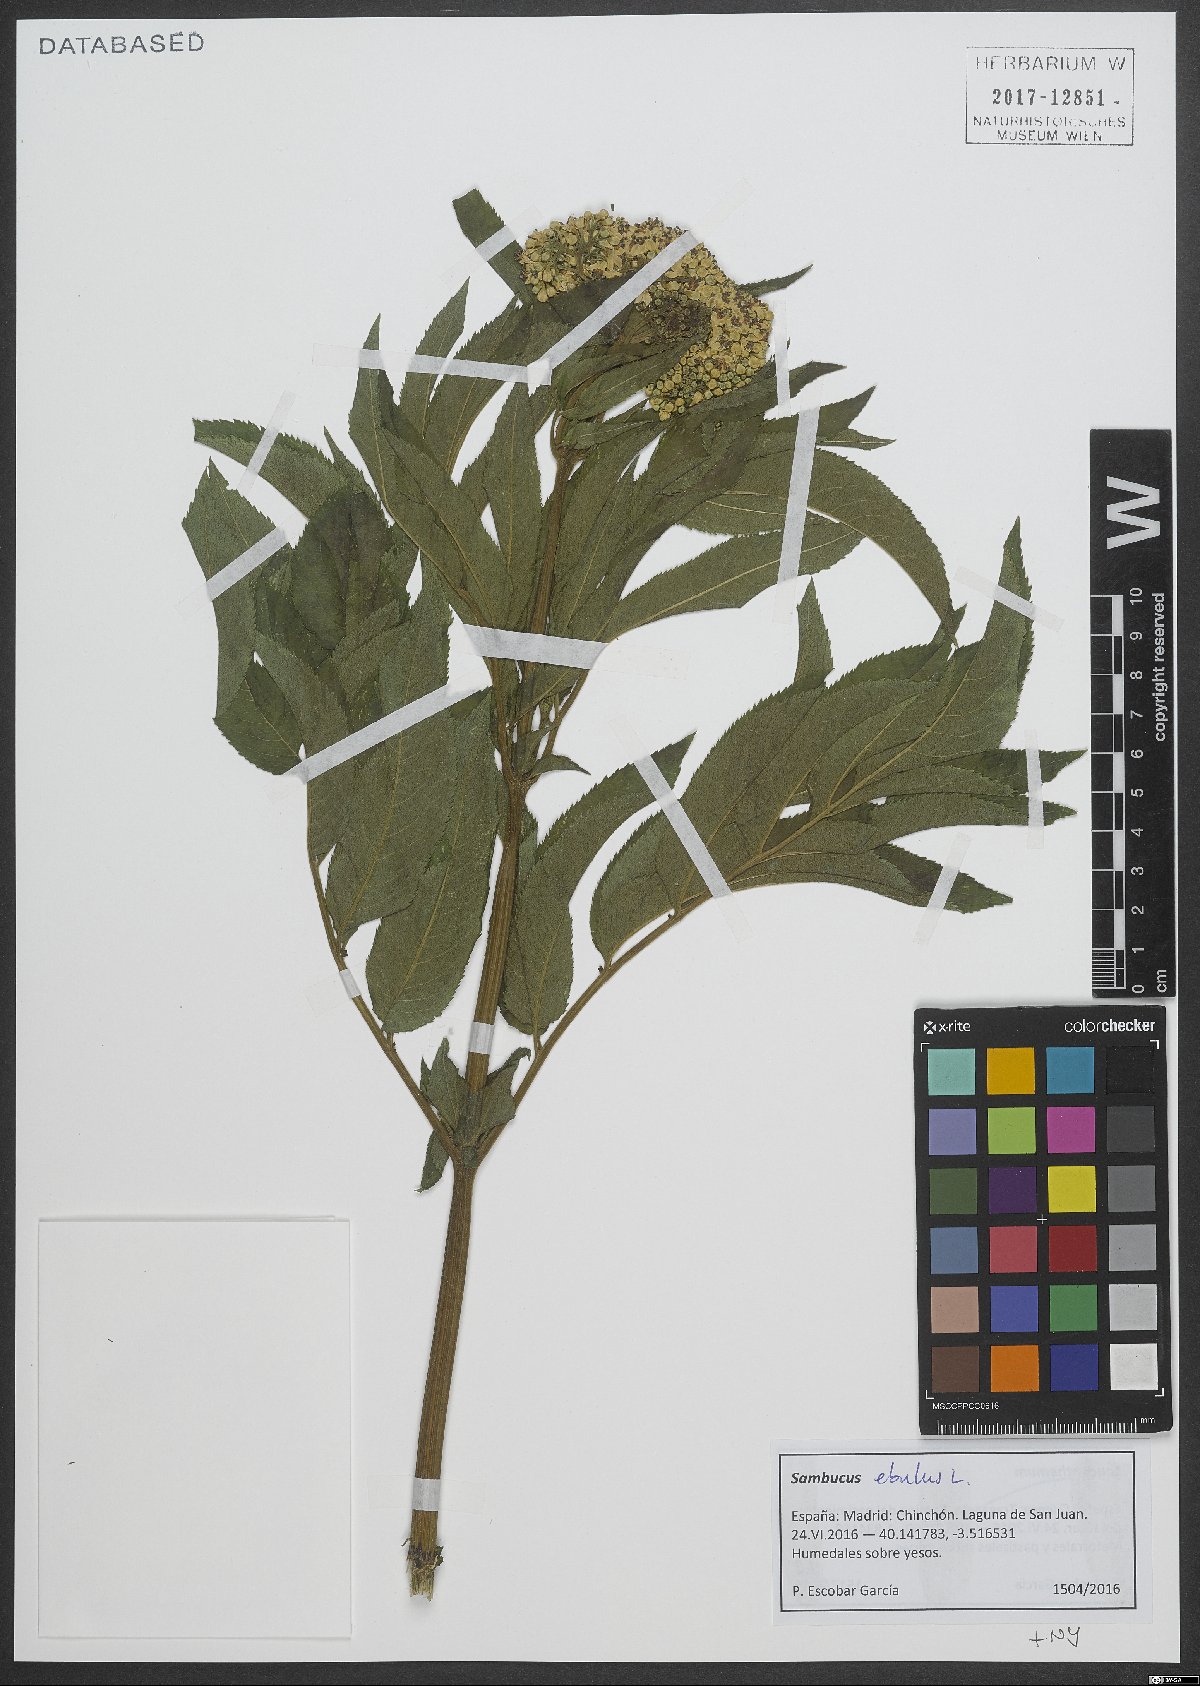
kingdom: Plantae
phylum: Tracheophyta
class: Magnoliopsida
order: Dipsacales
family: Viburnaceae
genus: Sambucus
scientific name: Sambucus ebulus
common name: Dwarf elder
